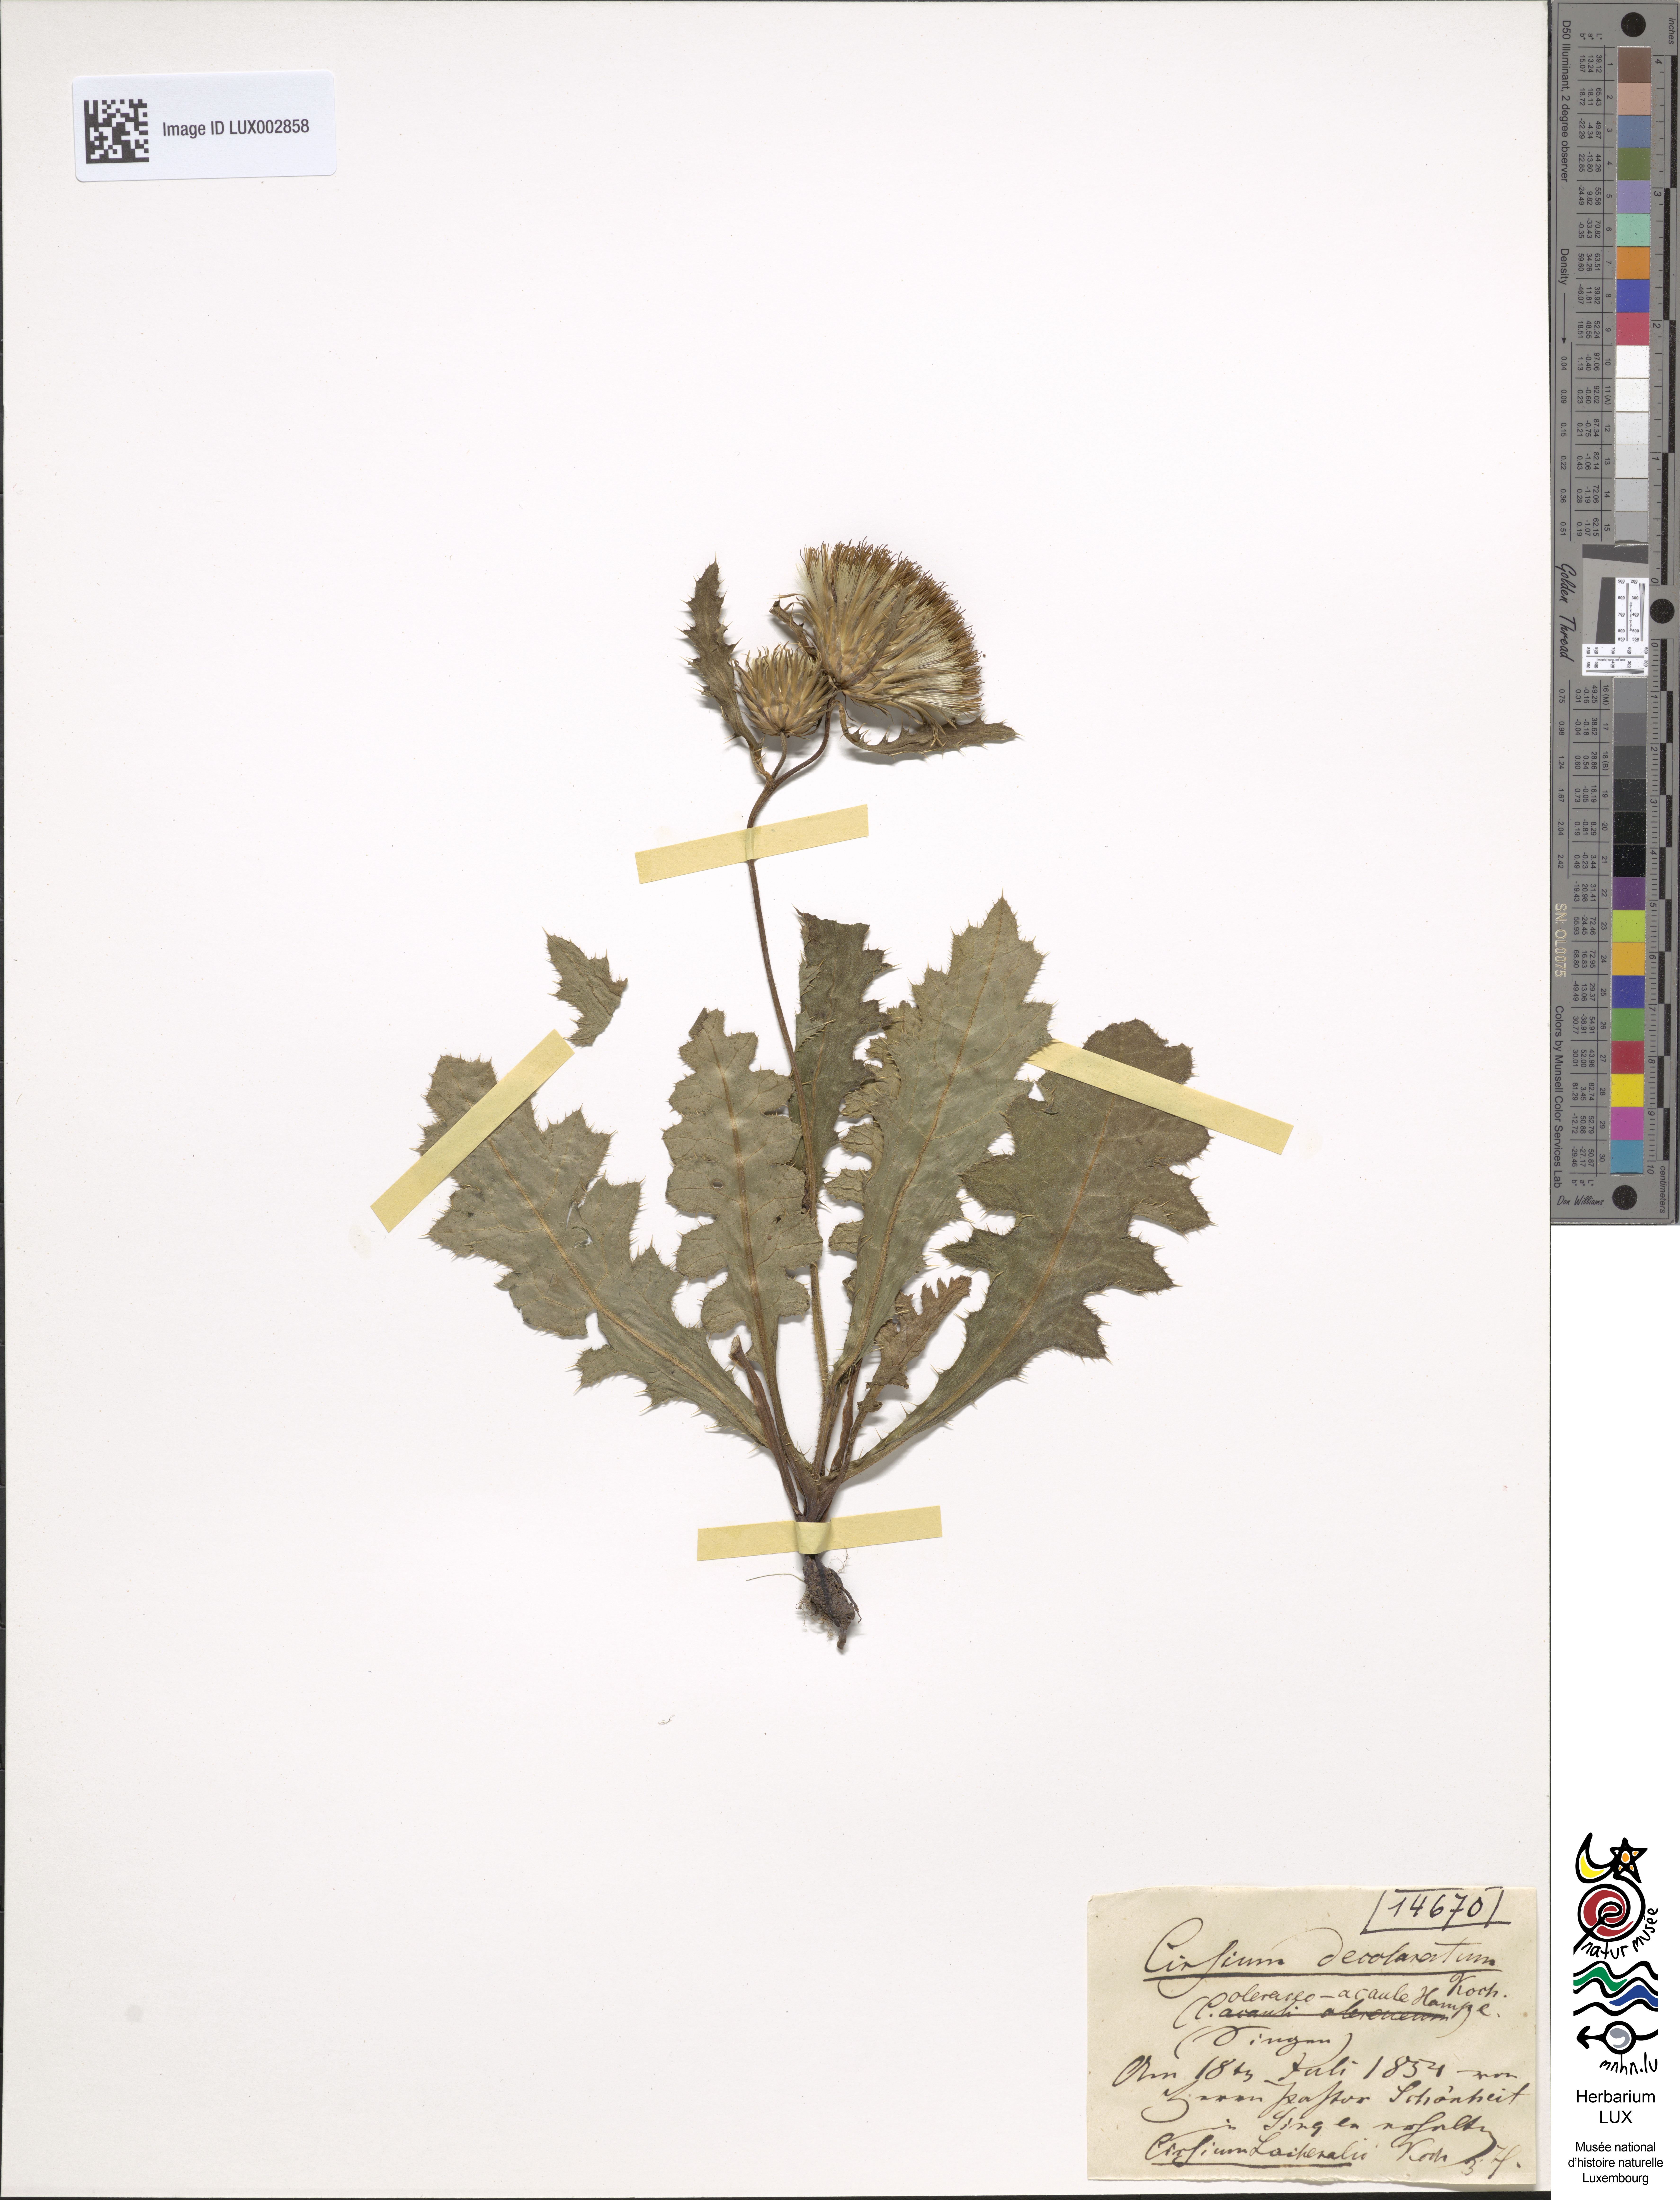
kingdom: Plantae
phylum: Tracheophyta
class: Magnoliopsida
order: Asterales
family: Asteraceae
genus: Cirsium
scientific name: Cirsium rigens
